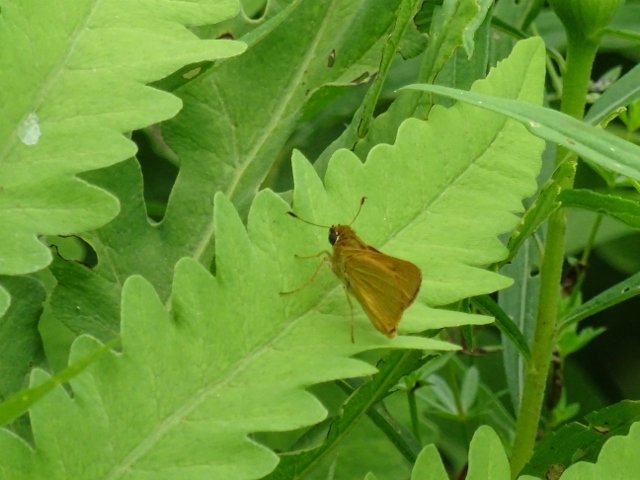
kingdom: Animalia
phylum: Arthropoda
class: Insecta
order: Lepidoptera
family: Hesperiidae
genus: Atrytone
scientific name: Atrytone delaware
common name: Delaware Skipper
